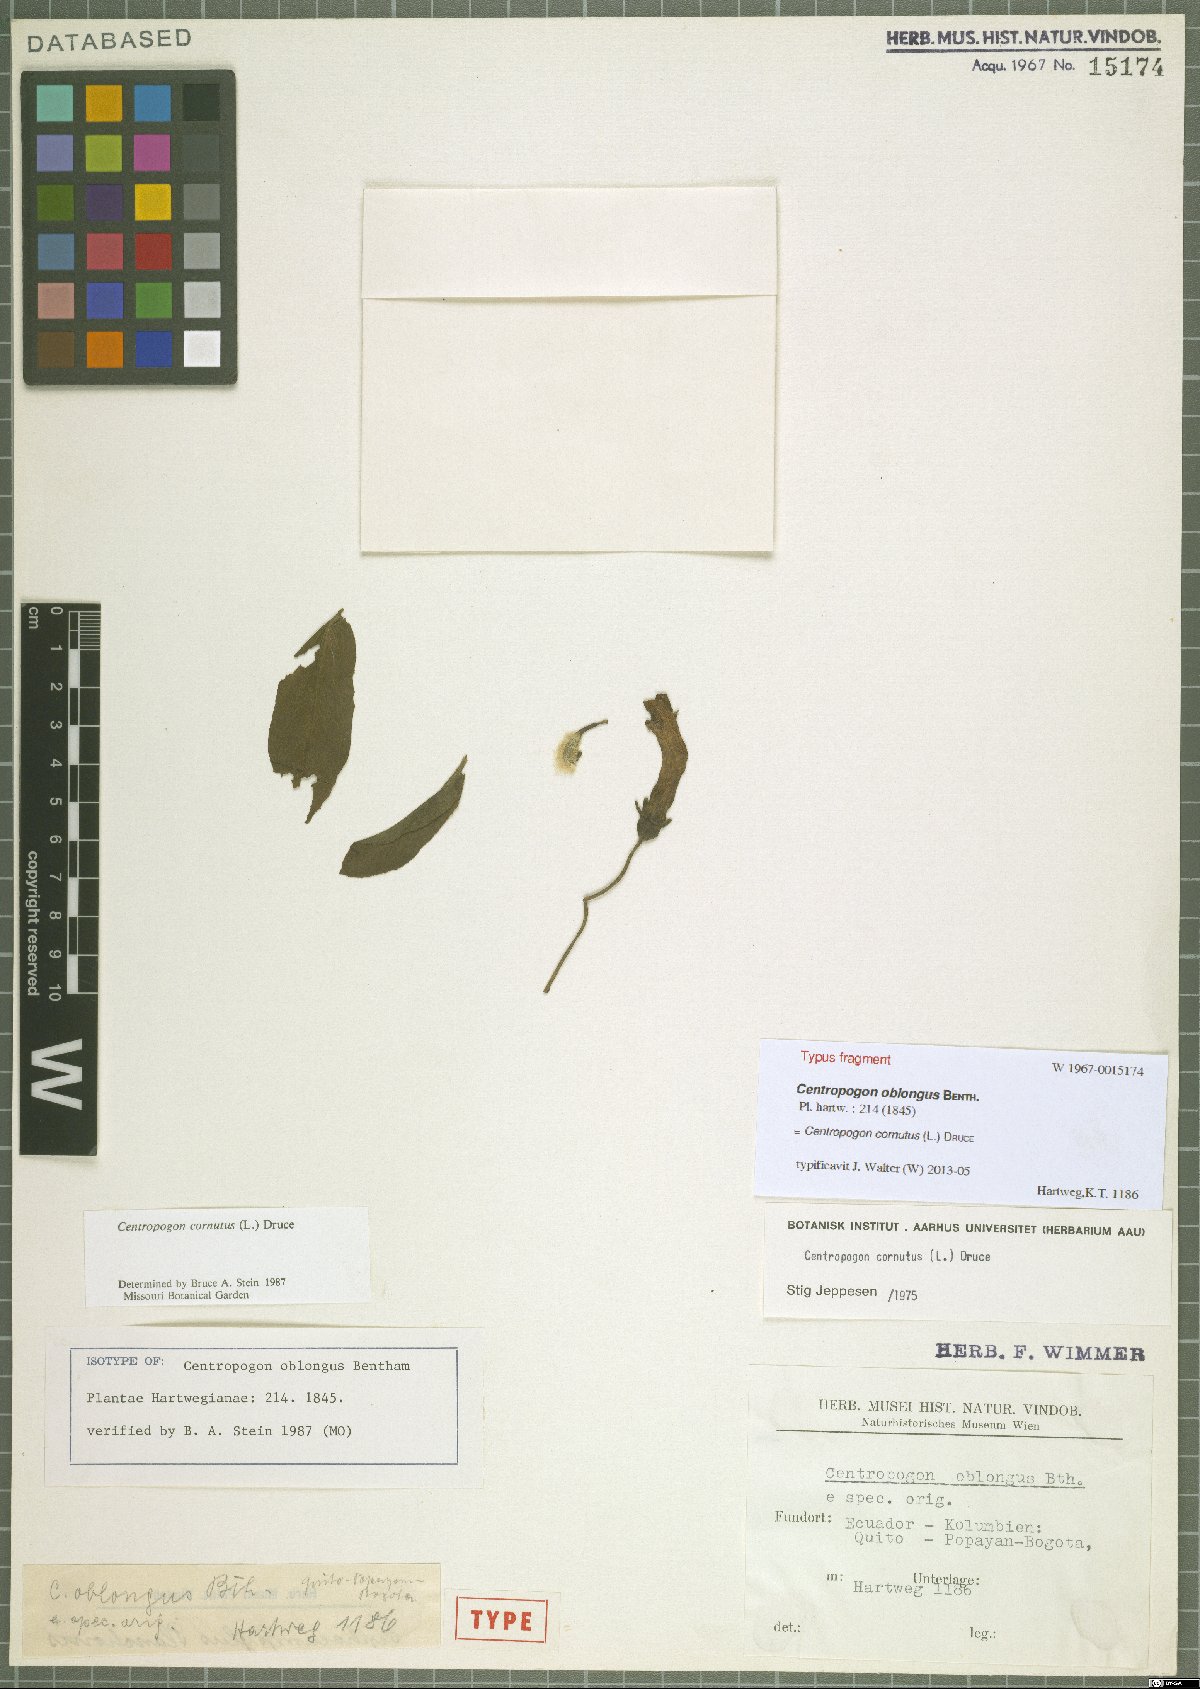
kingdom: Plantae
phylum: Tracheophyta
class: Magnoliopsida
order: Asterales
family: Campanulaceae
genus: Centropogon
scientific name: Centropogon cornutus
